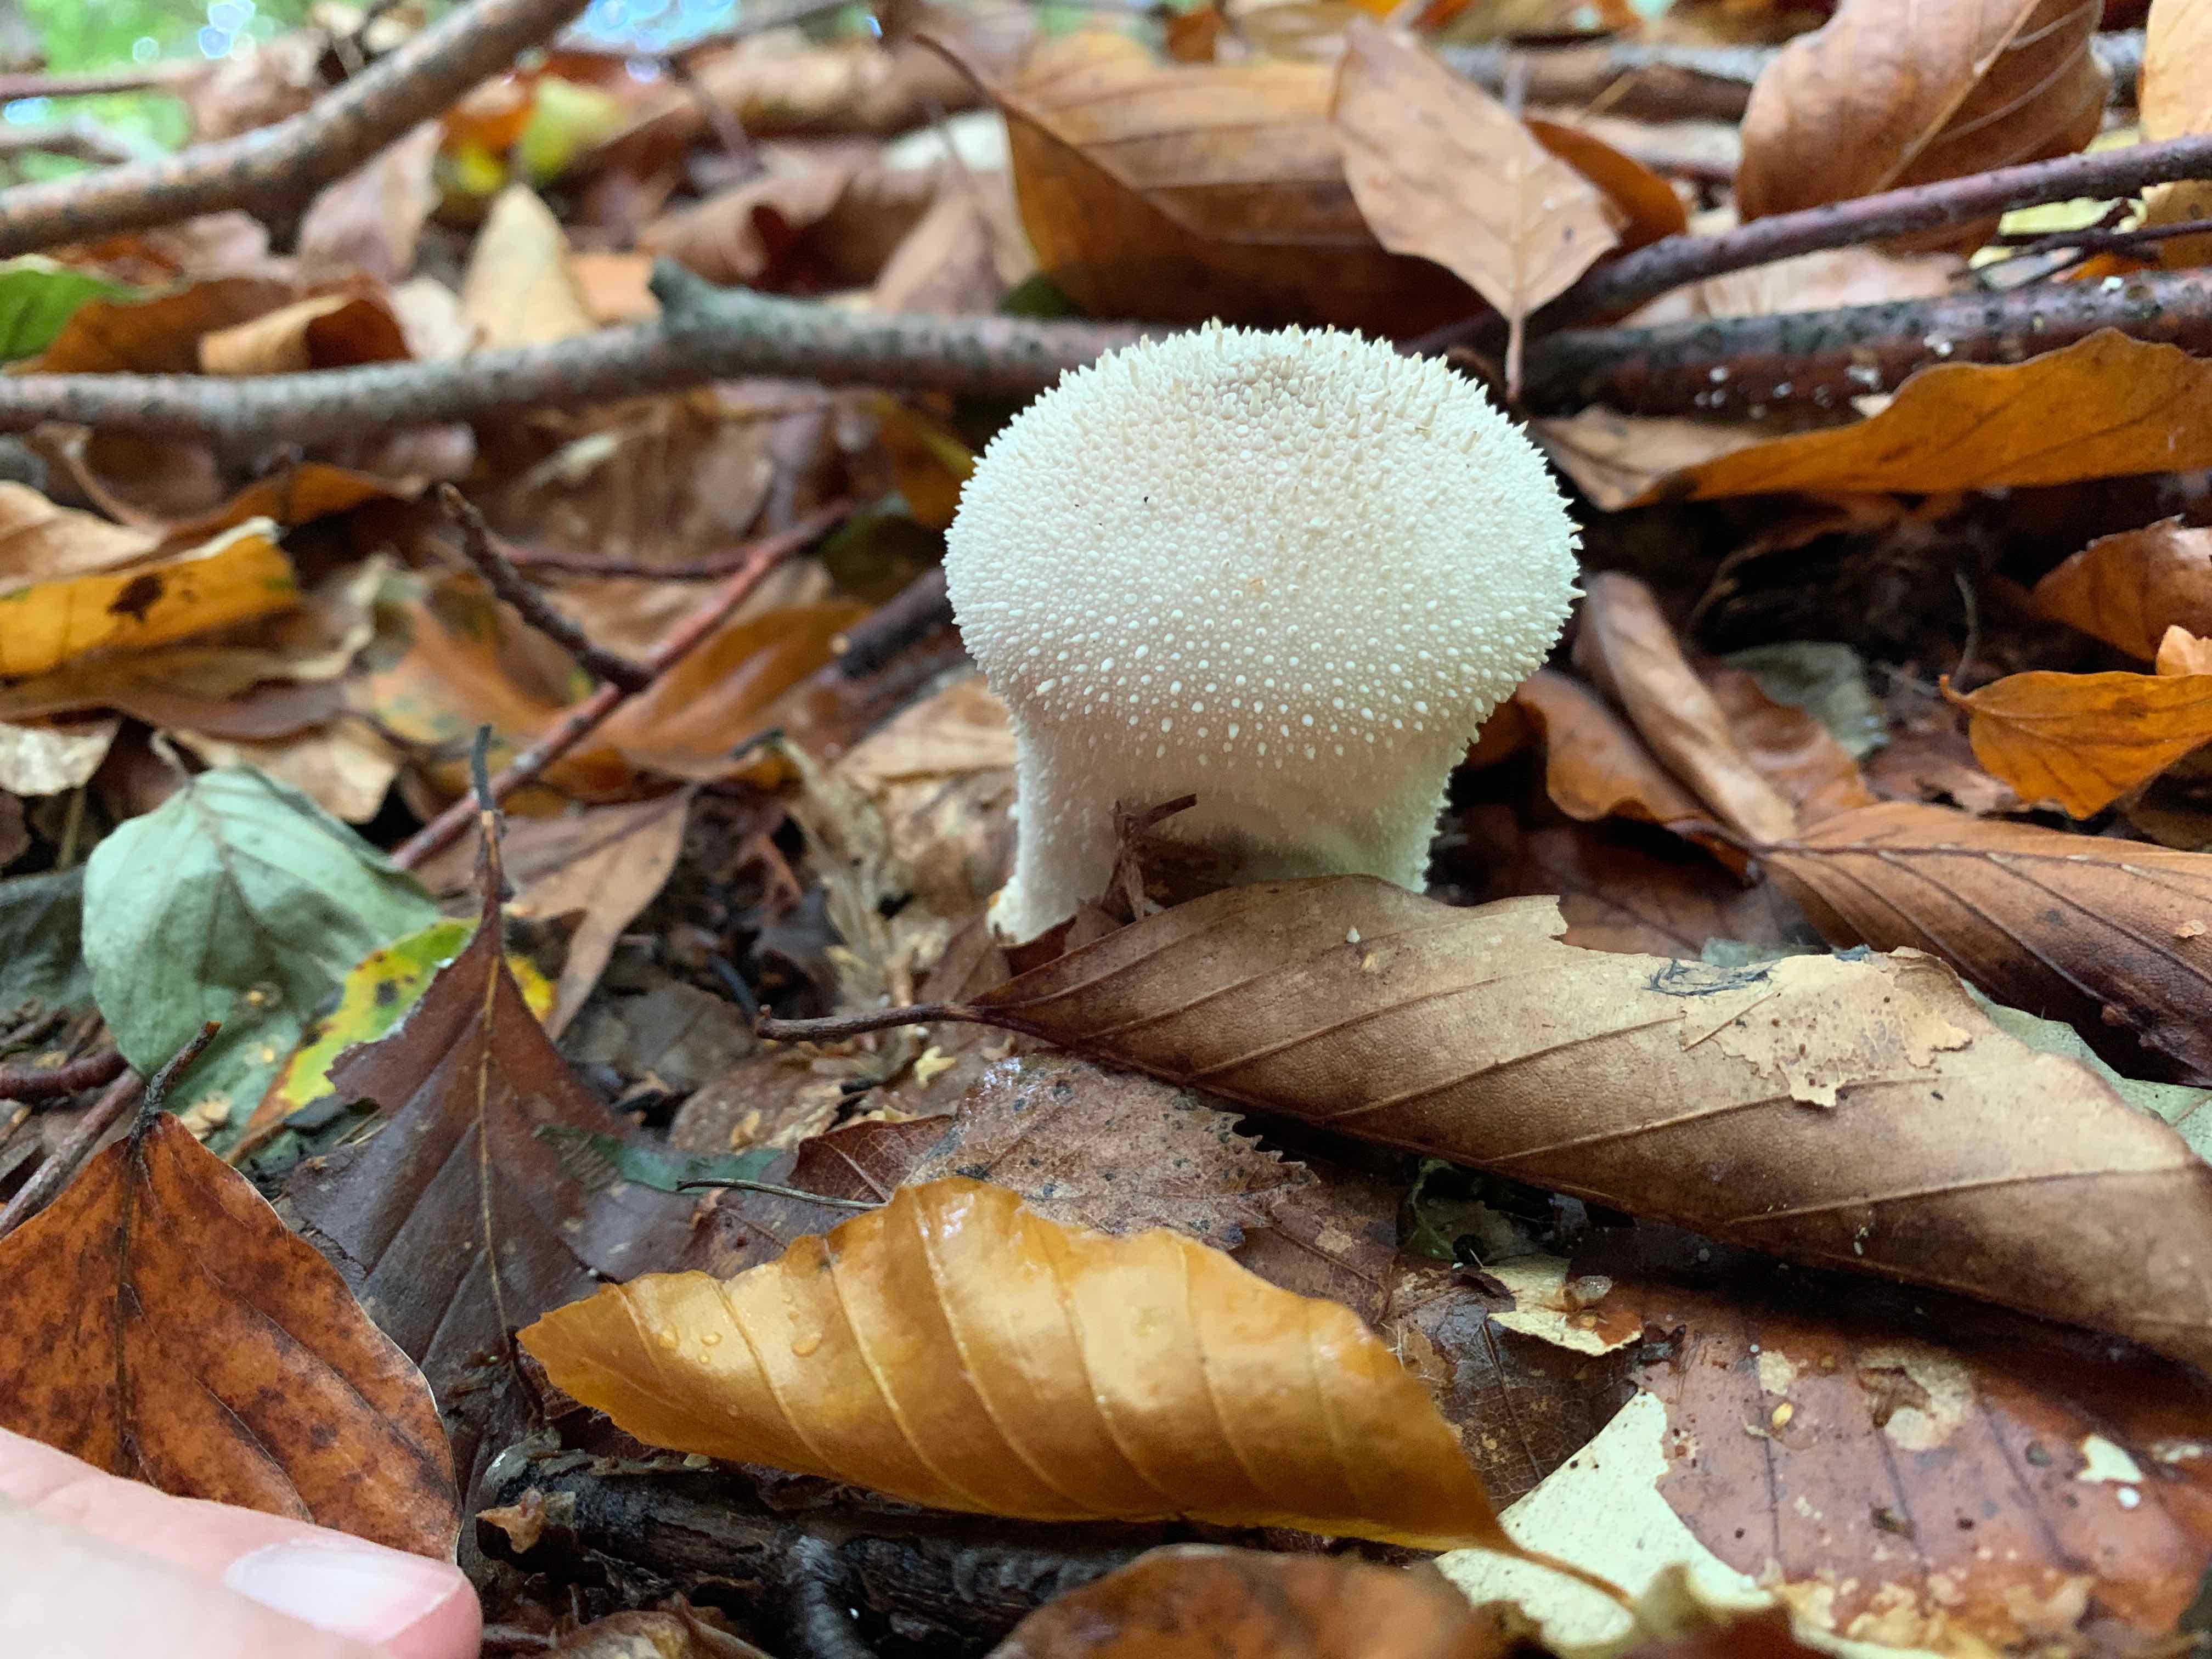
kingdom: Fungi
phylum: Basidiomycota
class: Agaricomycetes
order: Agaricales
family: Lycoperdaceae
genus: Lycoperdon
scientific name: Lycoperdon perlatum
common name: krystal-støvbold
